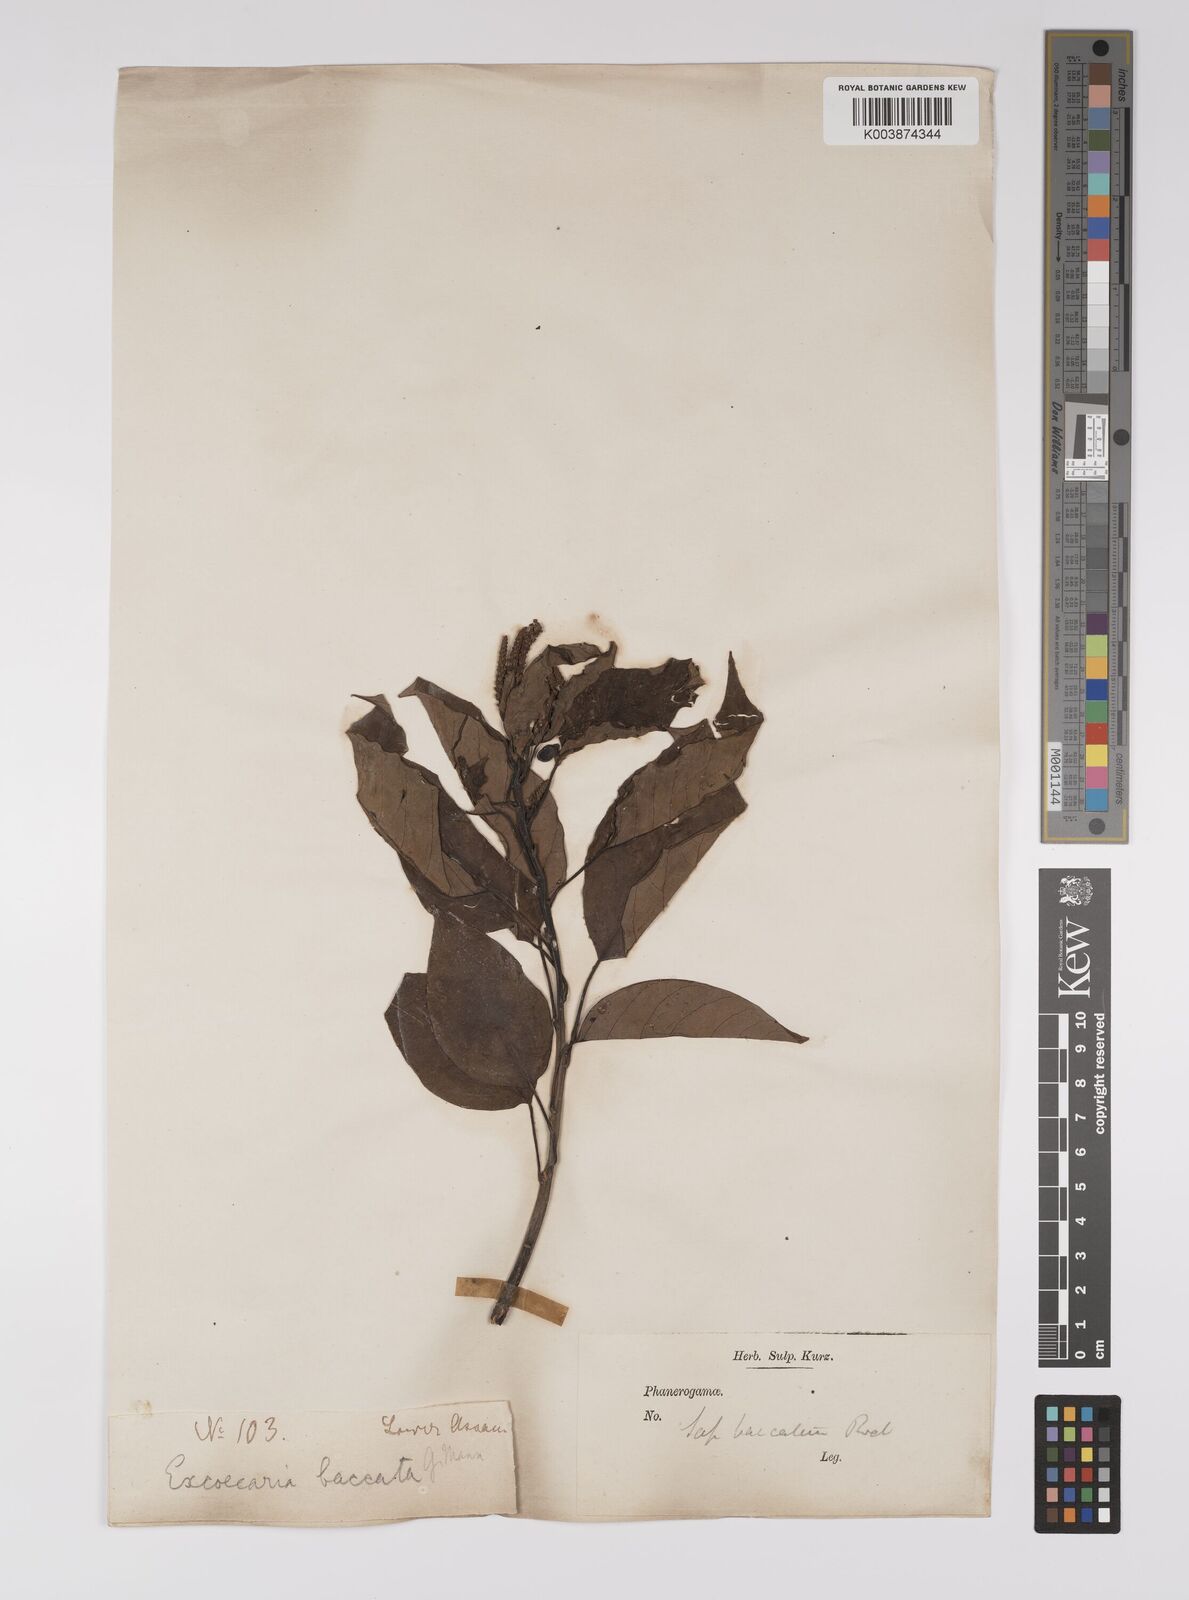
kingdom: Plantae
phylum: Tracheophyta
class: Magnoliopsida
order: Malpighiales
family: Euphorbiaceae
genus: Balakata
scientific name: Balakata baccata
